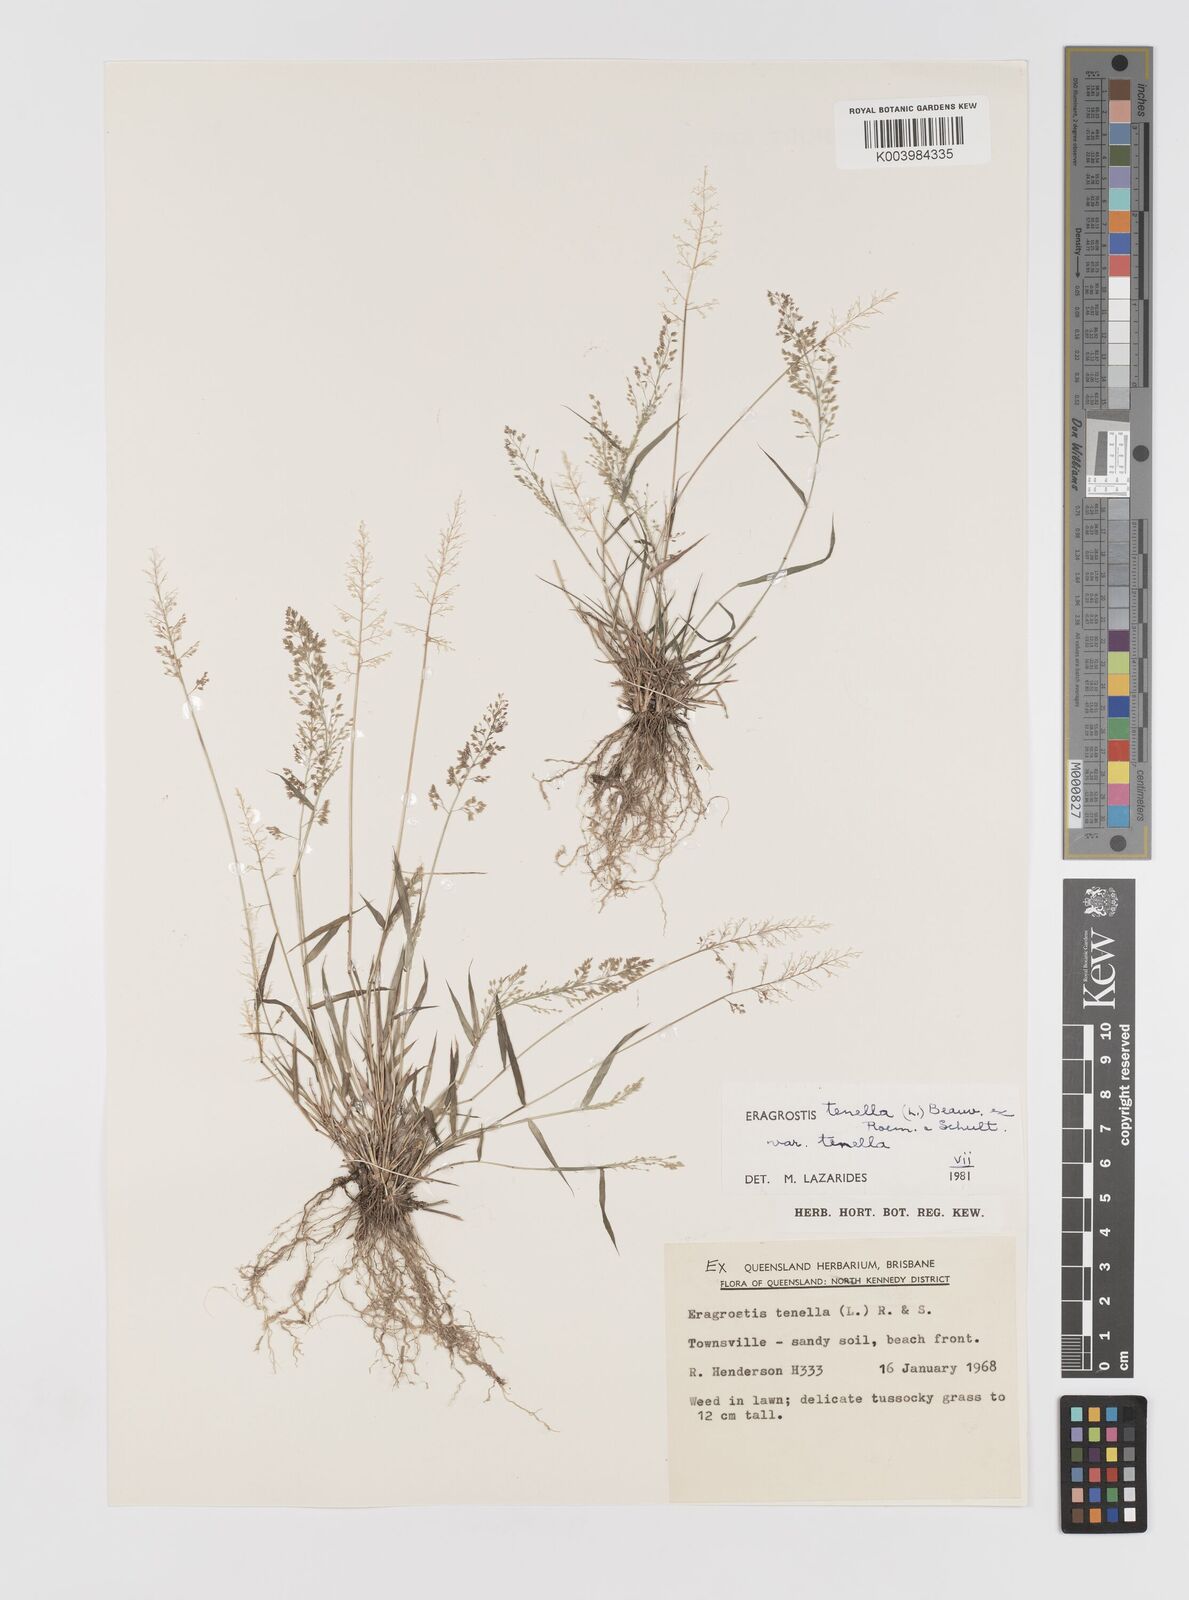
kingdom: Plantae
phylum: Tracheophyta
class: Liliopsida
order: Poales
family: Poaceae
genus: Eragrostis
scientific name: Eragrostis tenella
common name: Japanese lovegrass
